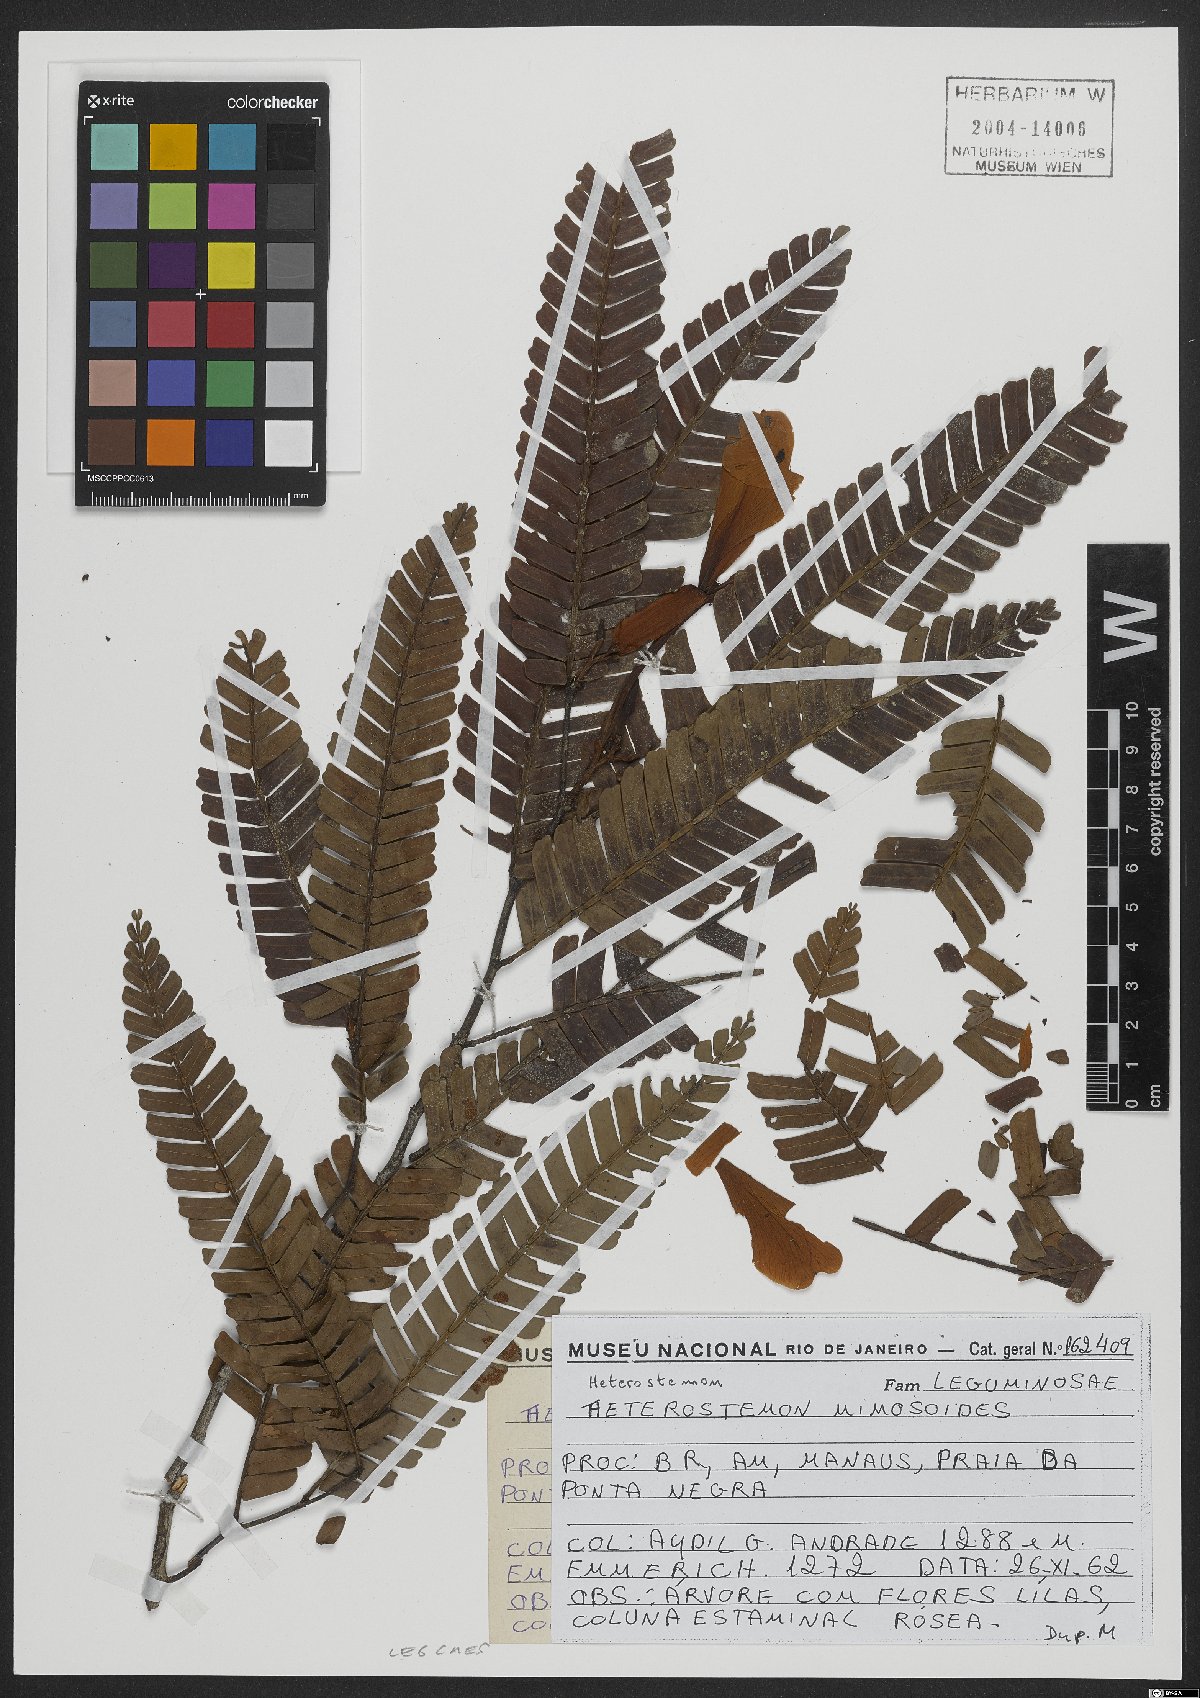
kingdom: Plantae
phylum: Tracheophyta
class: Magnoliopsida
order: Fabales
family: Fabaceae
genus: Heterostemon
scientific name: Heterostemon mimosoides
